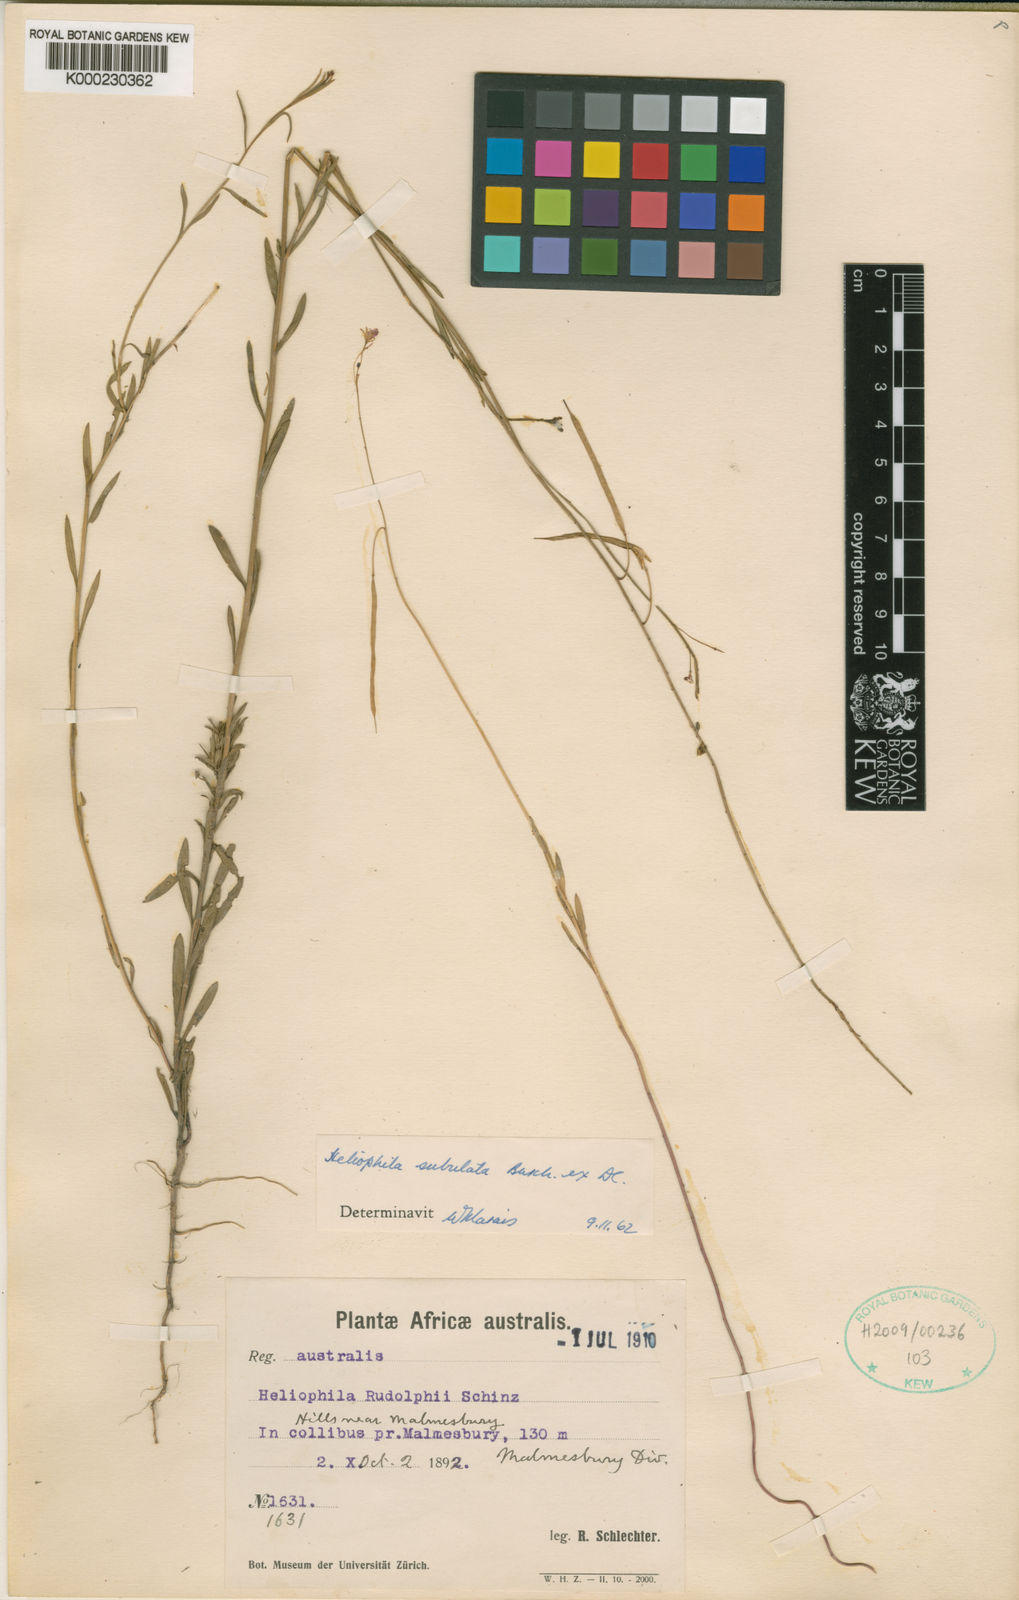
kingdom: Plantae
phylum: Tracheophyta
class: Magnoliopsida
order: Brassicales
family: Brassicaceae
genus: Heliophila
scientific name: Heliophila subulata
